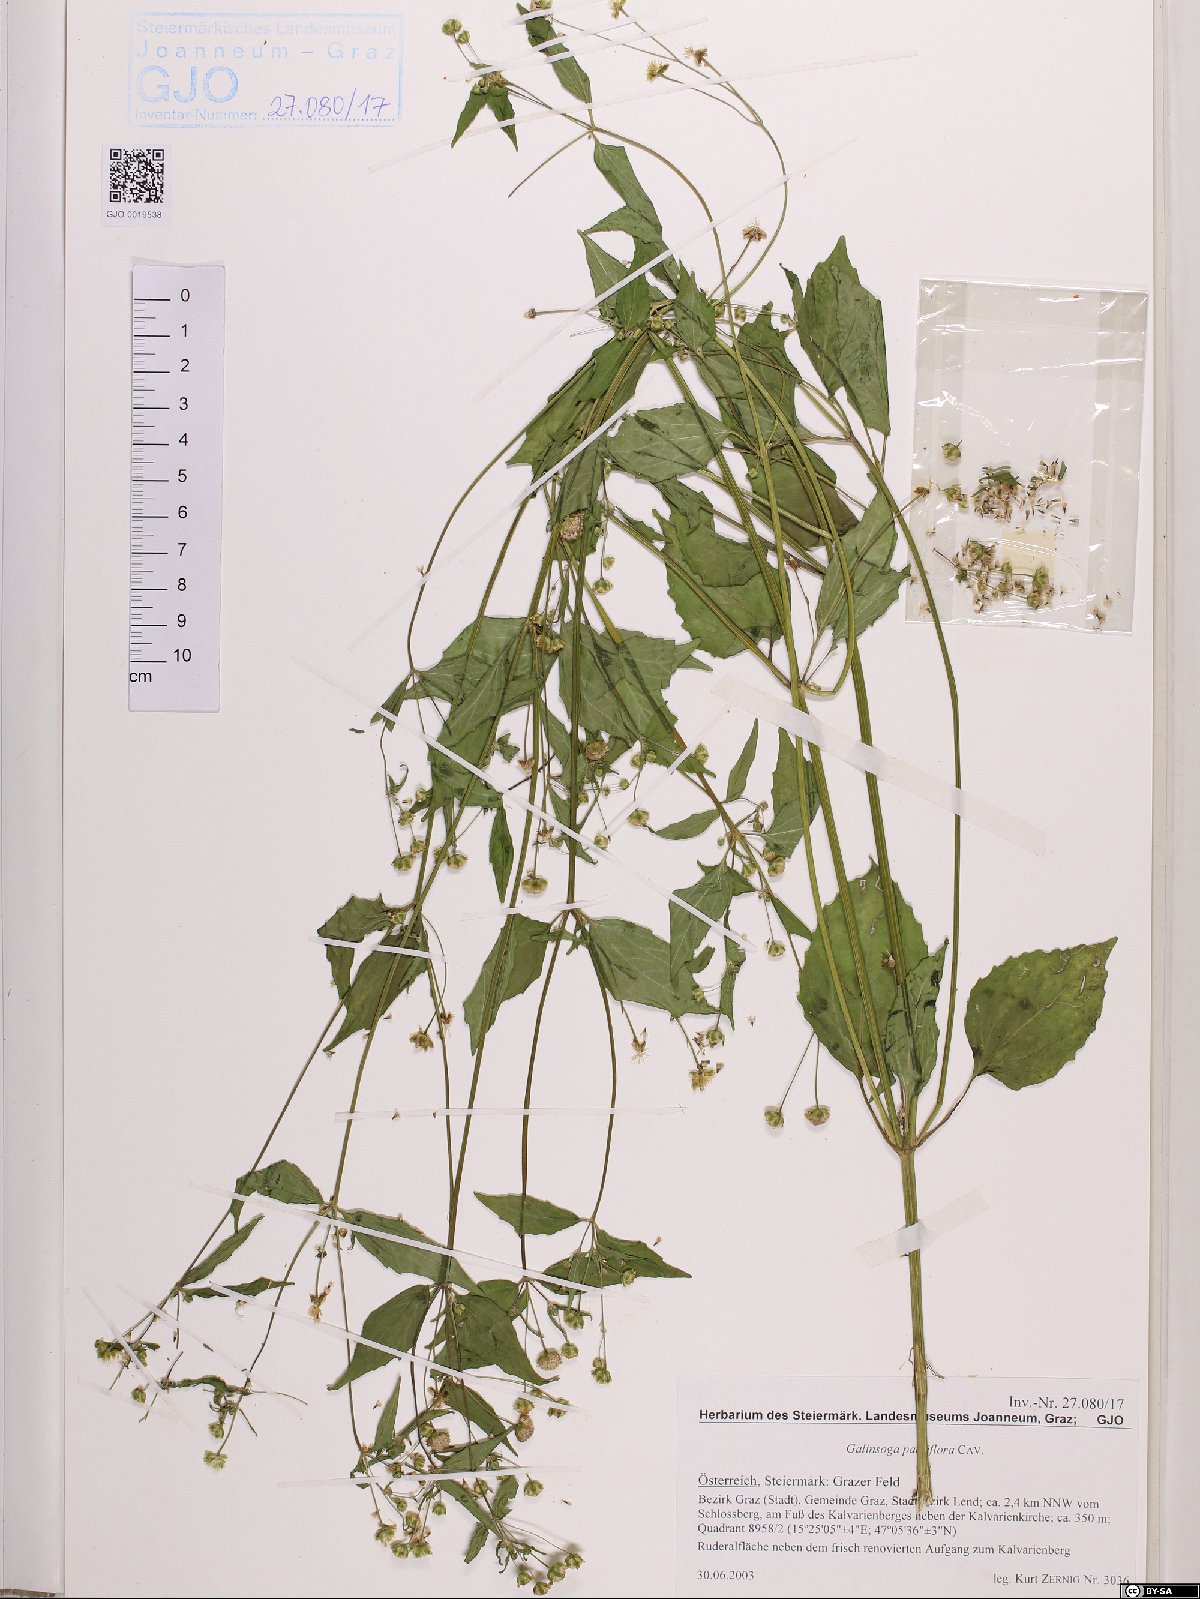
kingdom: Plantae
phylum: Tracheophyta
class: Magnoliopsida
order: Asterales
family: Asteraceae
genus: Galinsoga
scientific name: Galinsoga parviflora
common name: Gallant soldier
